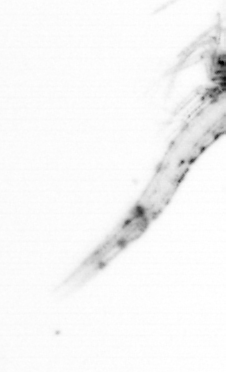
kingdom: Chromista
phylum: Ochrophyta
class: Bacillariophyceae
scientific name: Bacillariophyceae
